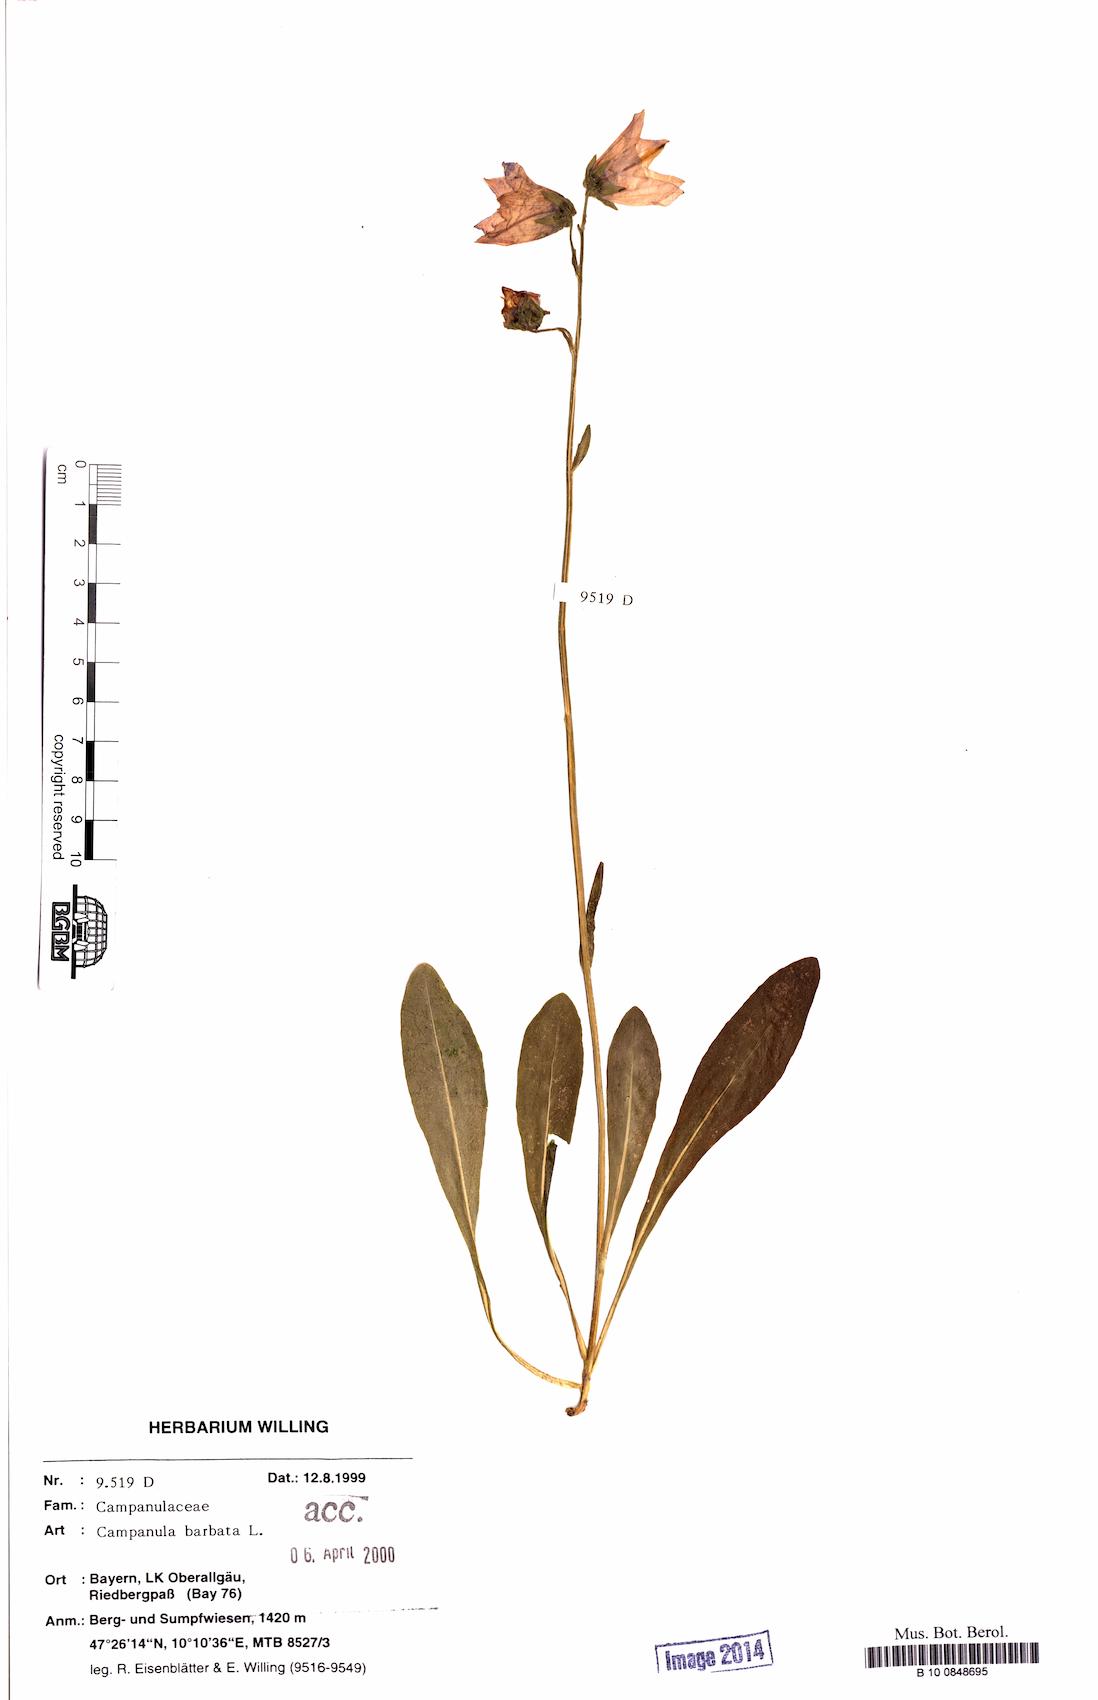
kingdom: Plantae
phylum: Tracheophyta
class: Magnoliopsida
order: Asterales
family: Campanulaceae
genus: Campanula
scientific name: Campanula barbata
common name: Bearded bellflower
